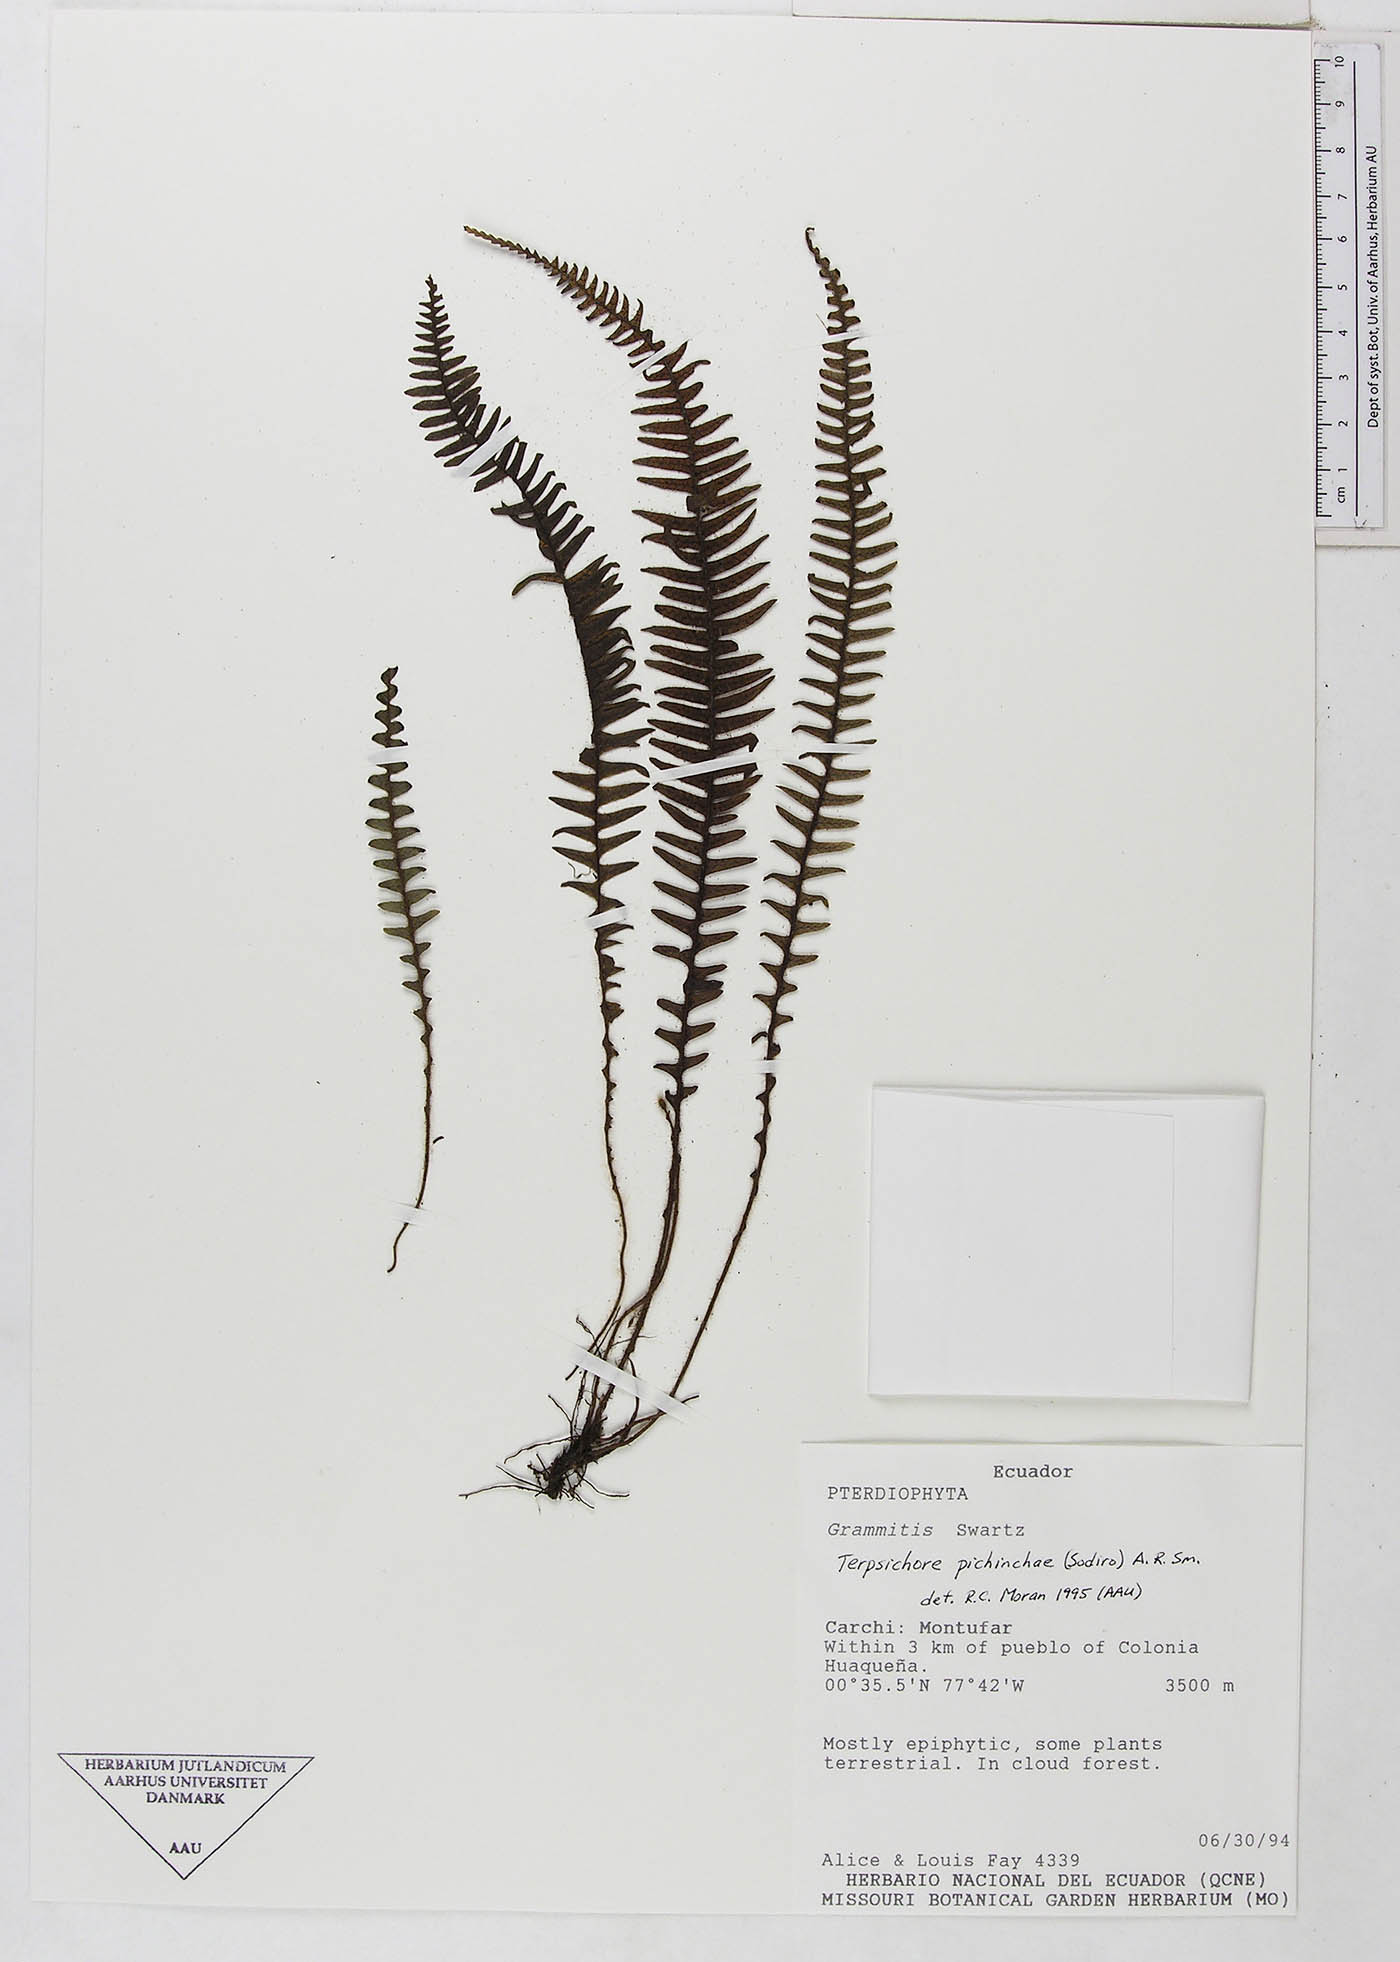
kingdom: Plantae
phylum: Tracheophyta
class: Polypodiopsida
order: Polypodiales
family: Polypodiaceae
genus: Ascogrammitis
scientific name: Ascogrammitis pichinchae
